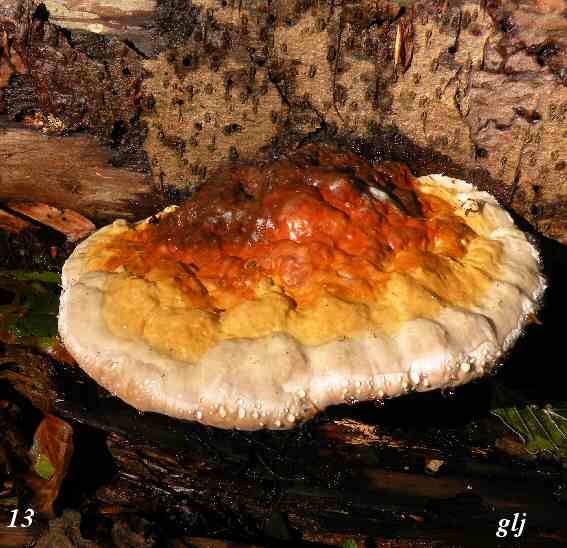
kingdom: Fungi
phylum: Basidiomycota
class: Agaricomycetes
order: Polyporales
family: Fomitopsidaceae
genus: Fomitopsis
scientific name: Fomitopsis pinicola
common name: randbæltet hovporesvamp
